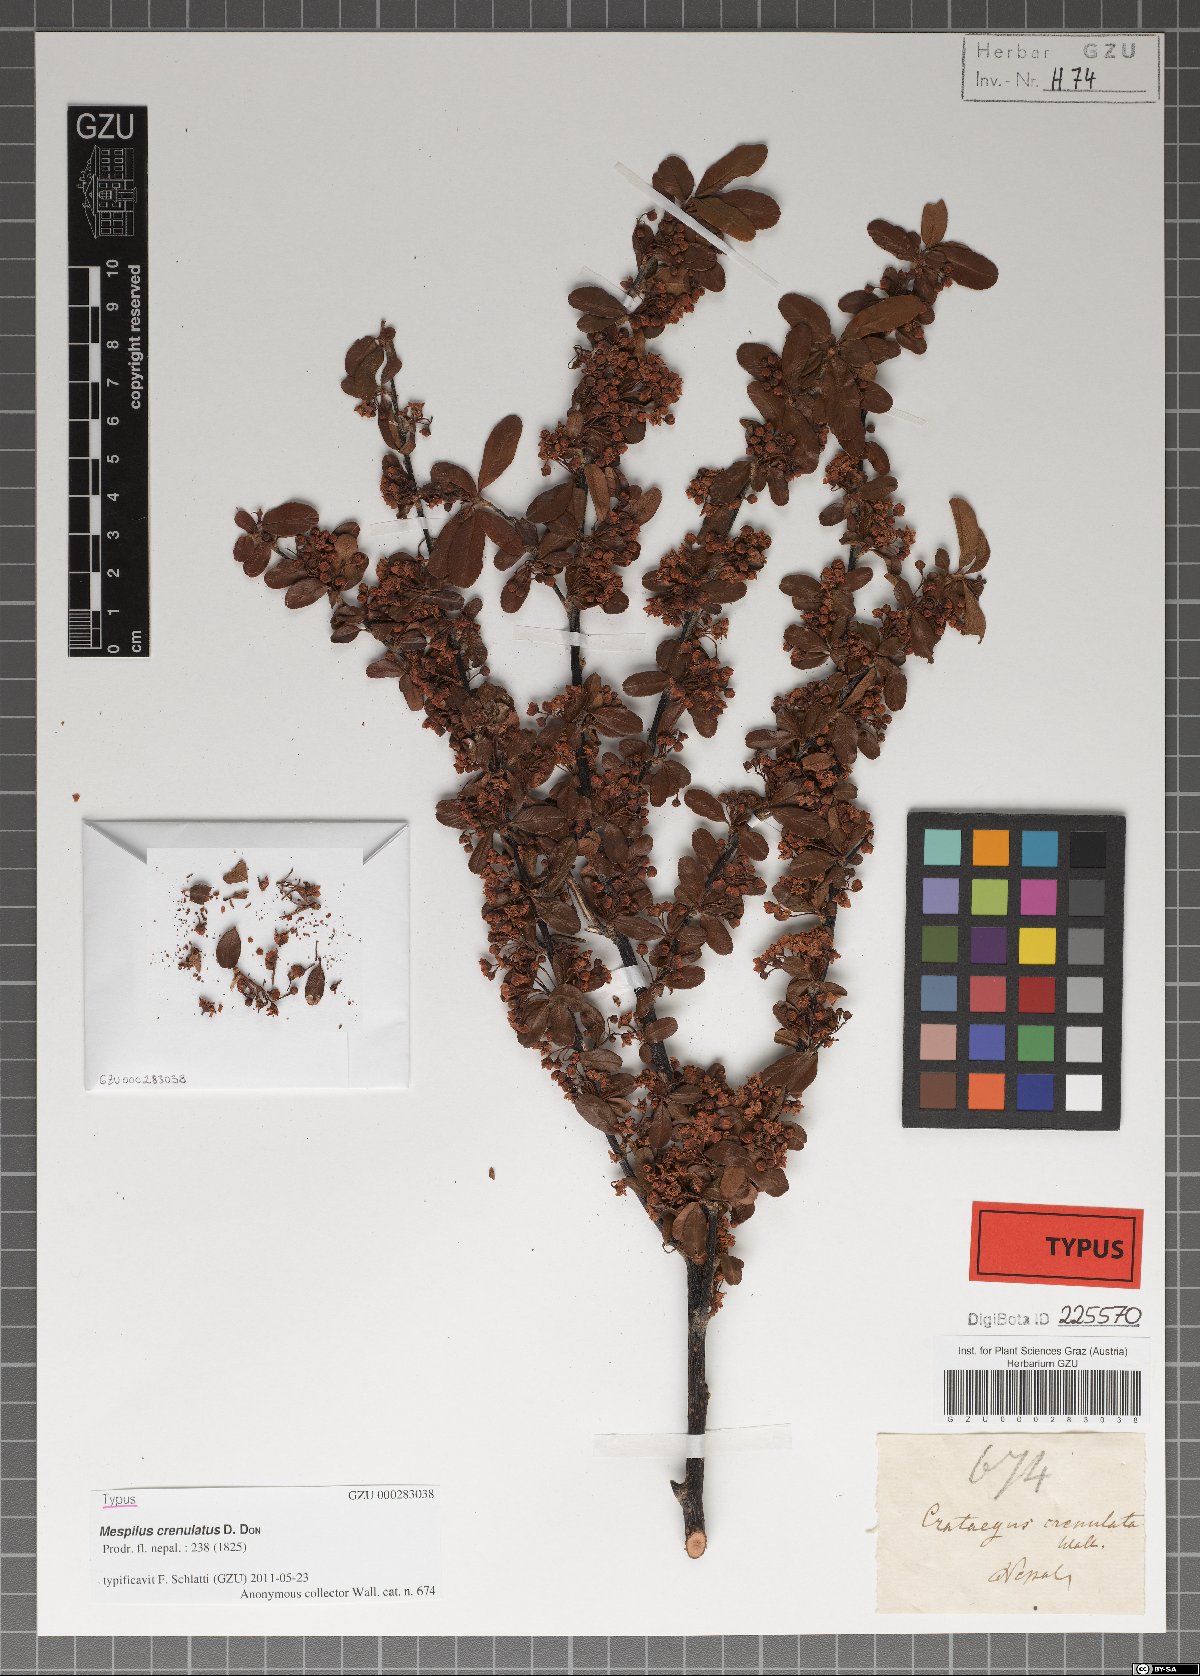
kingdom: Plantae
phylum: Tracheophyta
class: Magnoliopsida
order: Rosales
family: Rosaceae
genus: Pyracantha
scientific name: Pyracantha crenulata
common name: Nepalese firethorn
